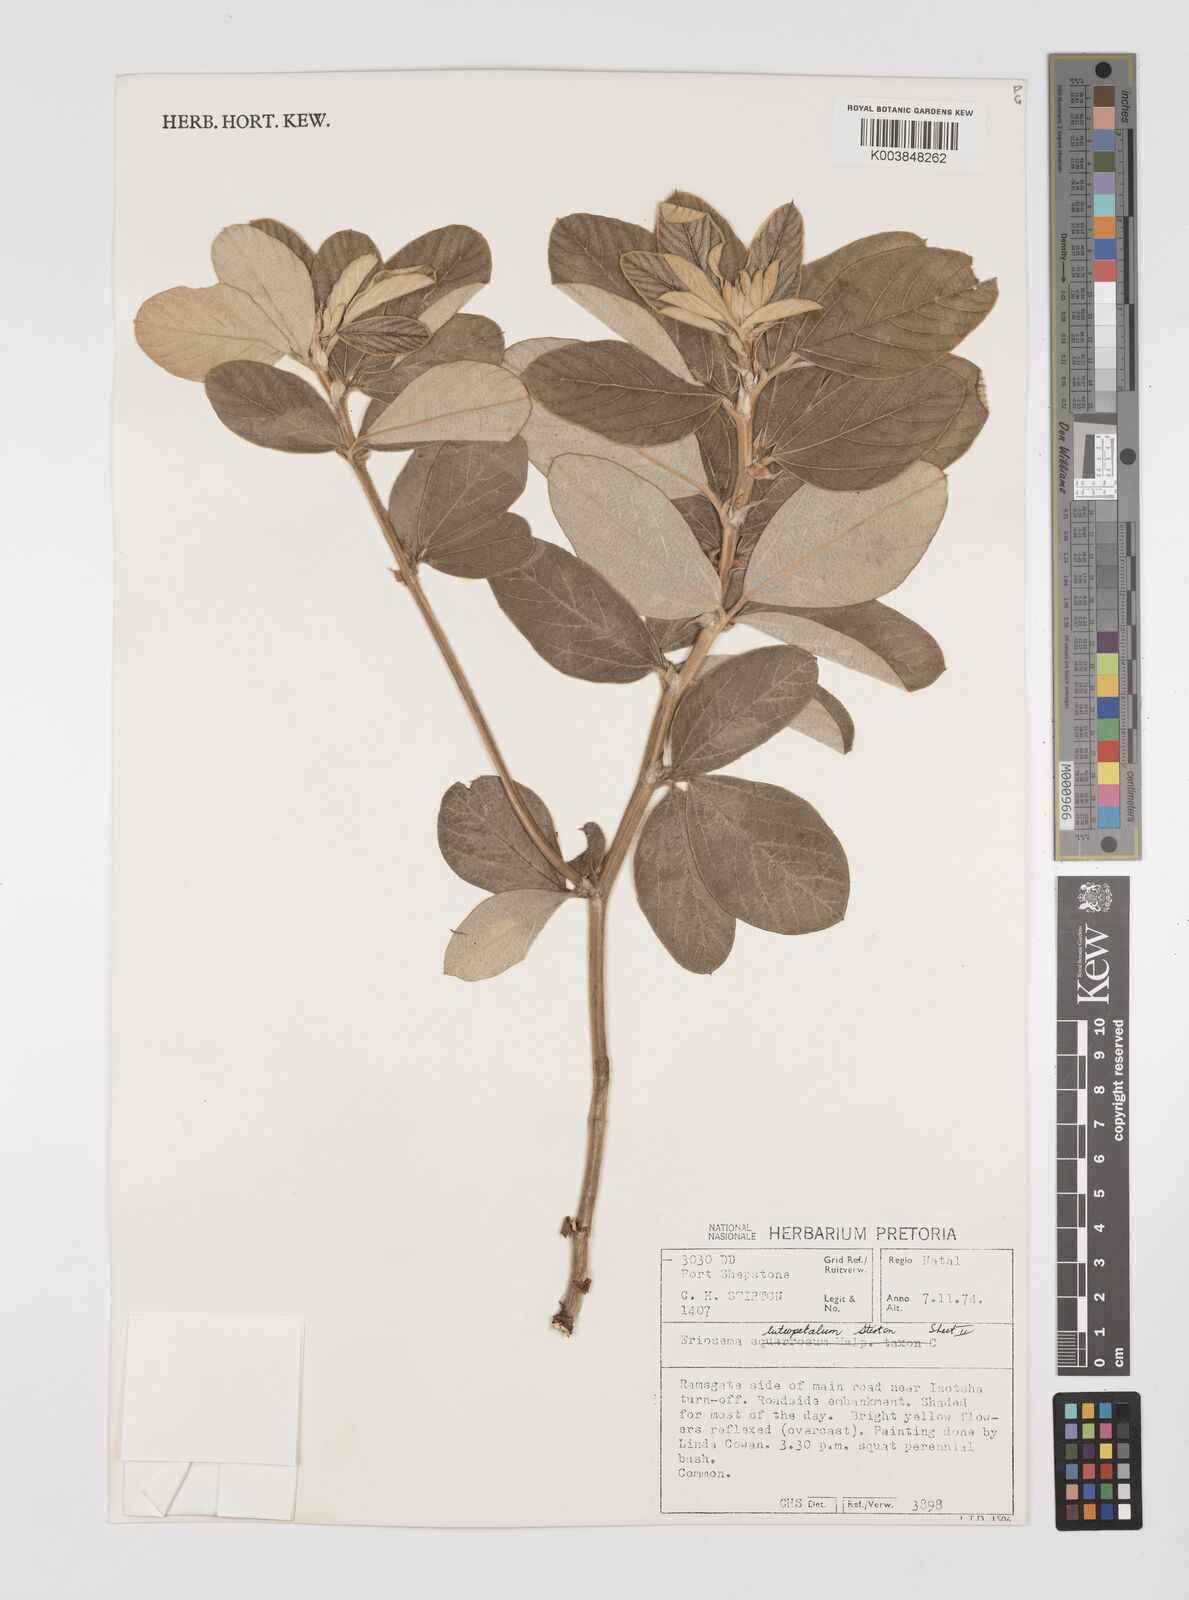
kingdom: Plantae
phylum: Tracheophyta
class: Magnoliopsida
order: Fabales
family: Fabaceae
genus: Eriosema
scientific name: Eriosema luteopetalum
